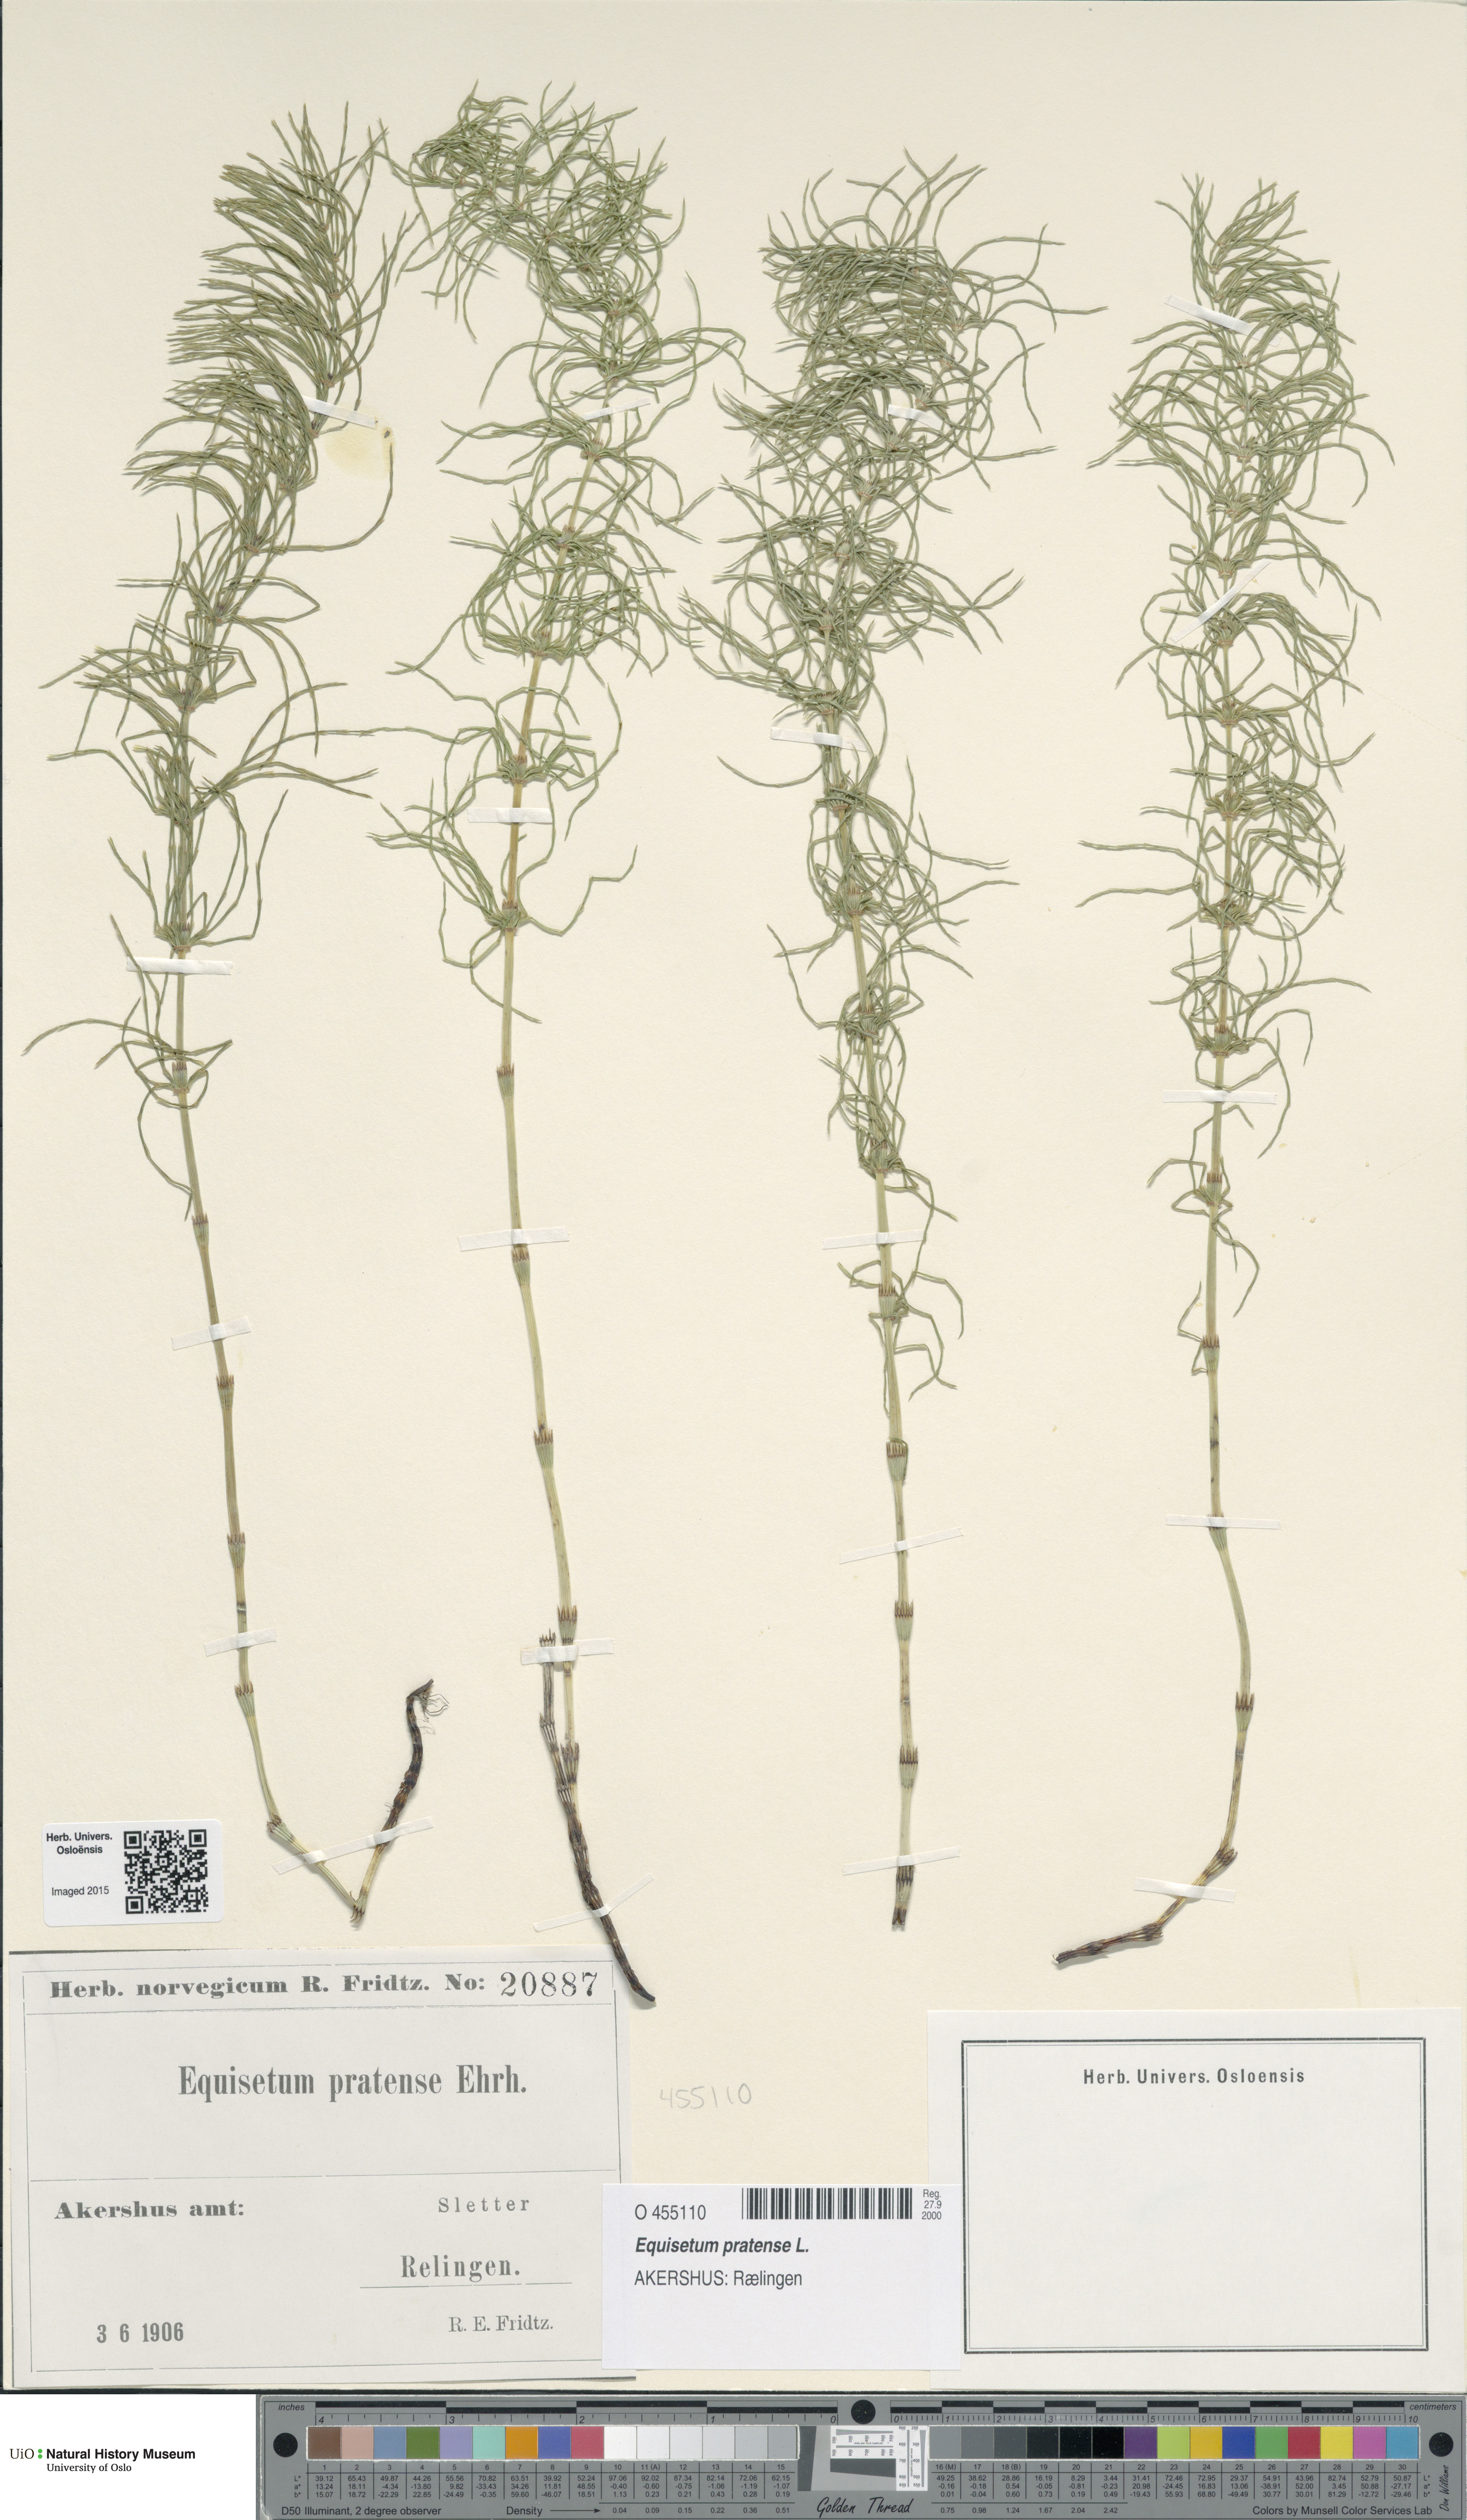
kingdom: Plantae
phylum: Tracheophyta
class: Polypodiopsida
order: Equisetales
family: Equisetaceae
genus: Equisetum
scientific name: Equisetum pratense
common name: Meadow horsetail
